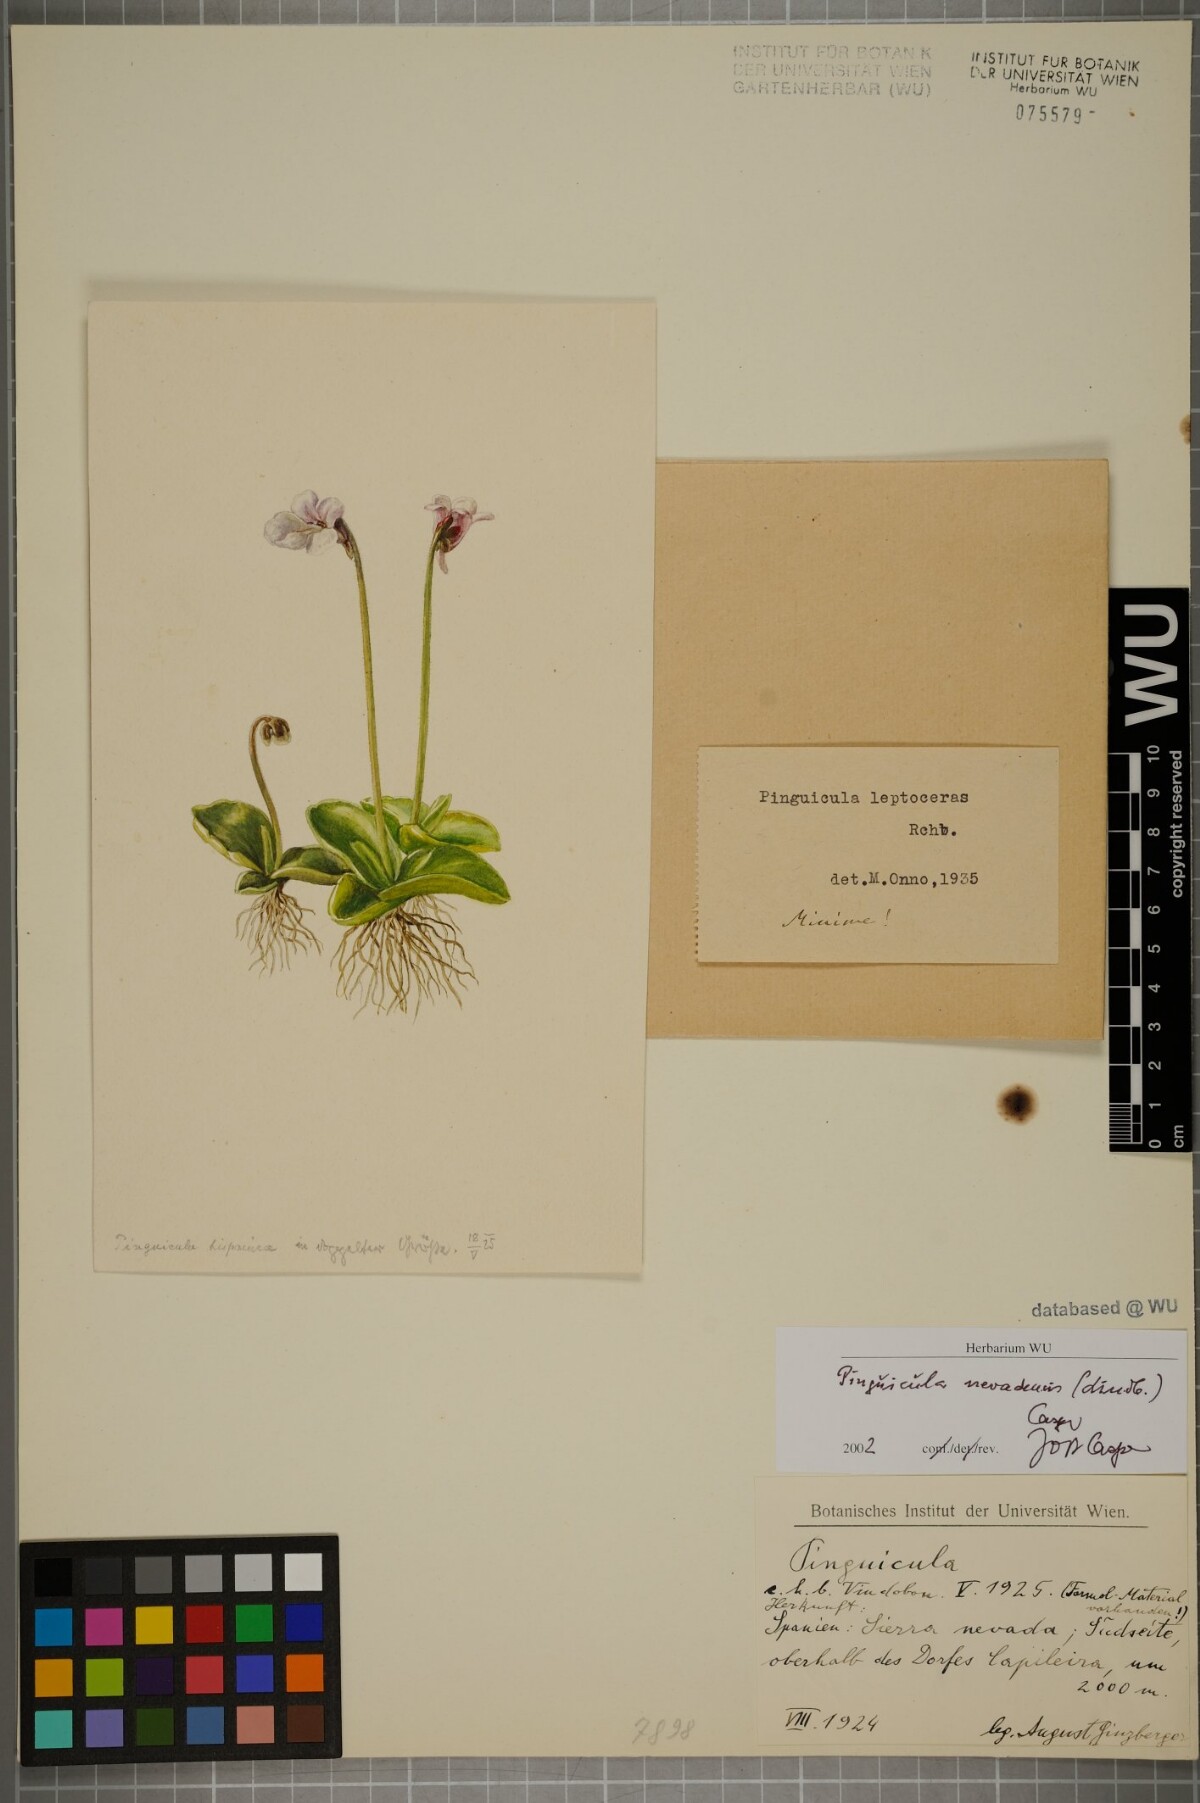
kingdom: Plantae
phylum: Tracheophyta
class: Magnoliopsida
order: Lamiales
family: Lentibulariaceae
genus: Pinguicula
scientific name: Pinguicula nevadensis
